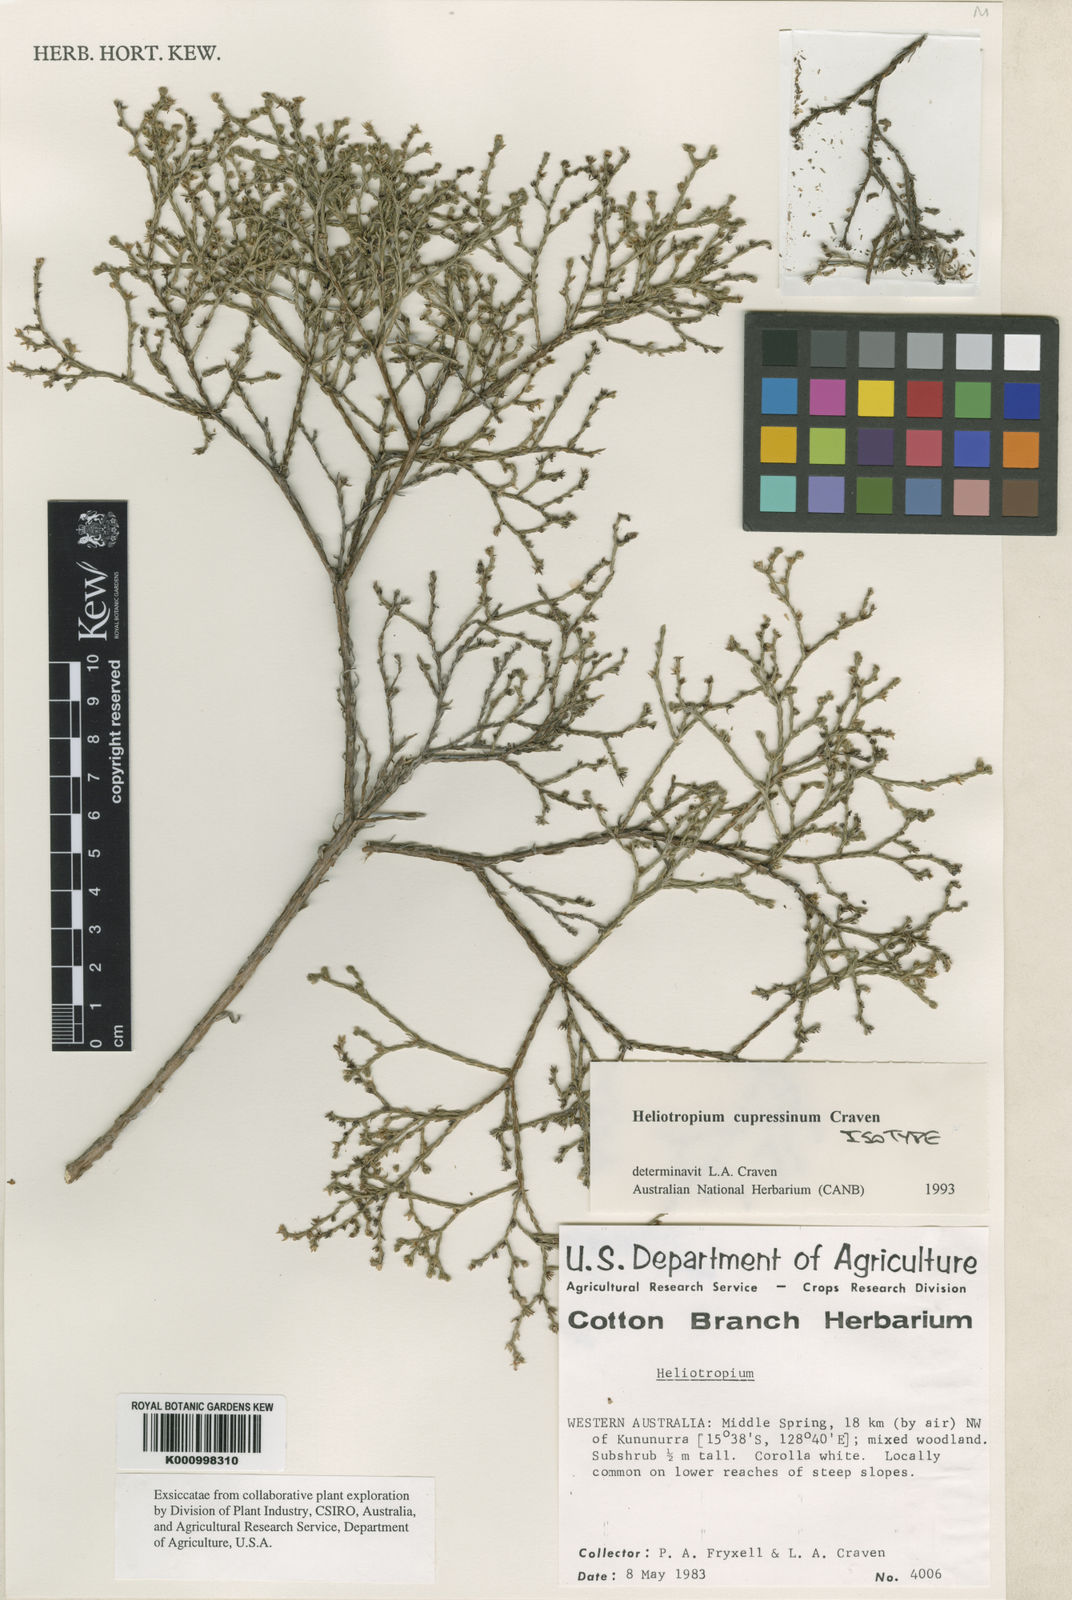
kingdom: Plantae
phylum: Tracheophyta
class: Magnoliopsida
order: Boraginales
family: Heliotropiaceae
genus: Euploca
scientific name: Euploca cupressina
